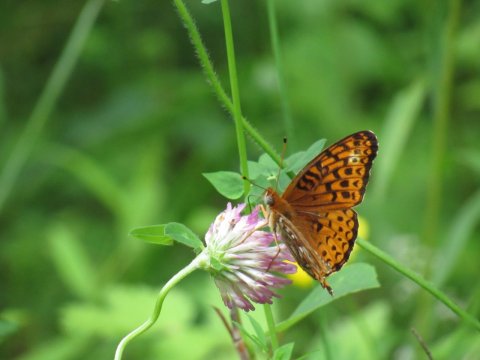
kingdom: Animalia
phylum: Arthropoda
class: Insecta
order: Lepidoptera
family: Nymphalidae
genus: Speyeria
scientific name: Speyeria atlantis
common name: Atlantis Fritillary
